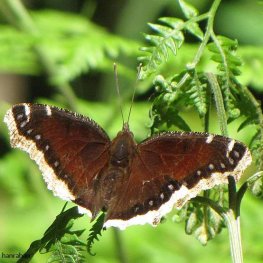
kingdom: Animalia
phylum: Arthropoda
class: Insecta
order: Lepidoptera
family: Nymphalidae
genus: Nymphalis
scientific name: Nymphalis antiopa
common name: Mourning Cloak
